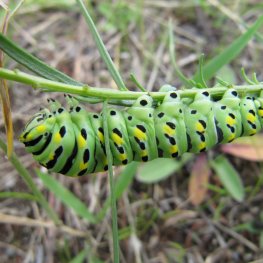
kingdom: Animalia
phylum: Arthropoda
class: Insecta
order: Lepidoptera
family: Papilionidae
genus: Papilio
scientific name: Papilio zelicaon
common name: Anise Swallowtail
